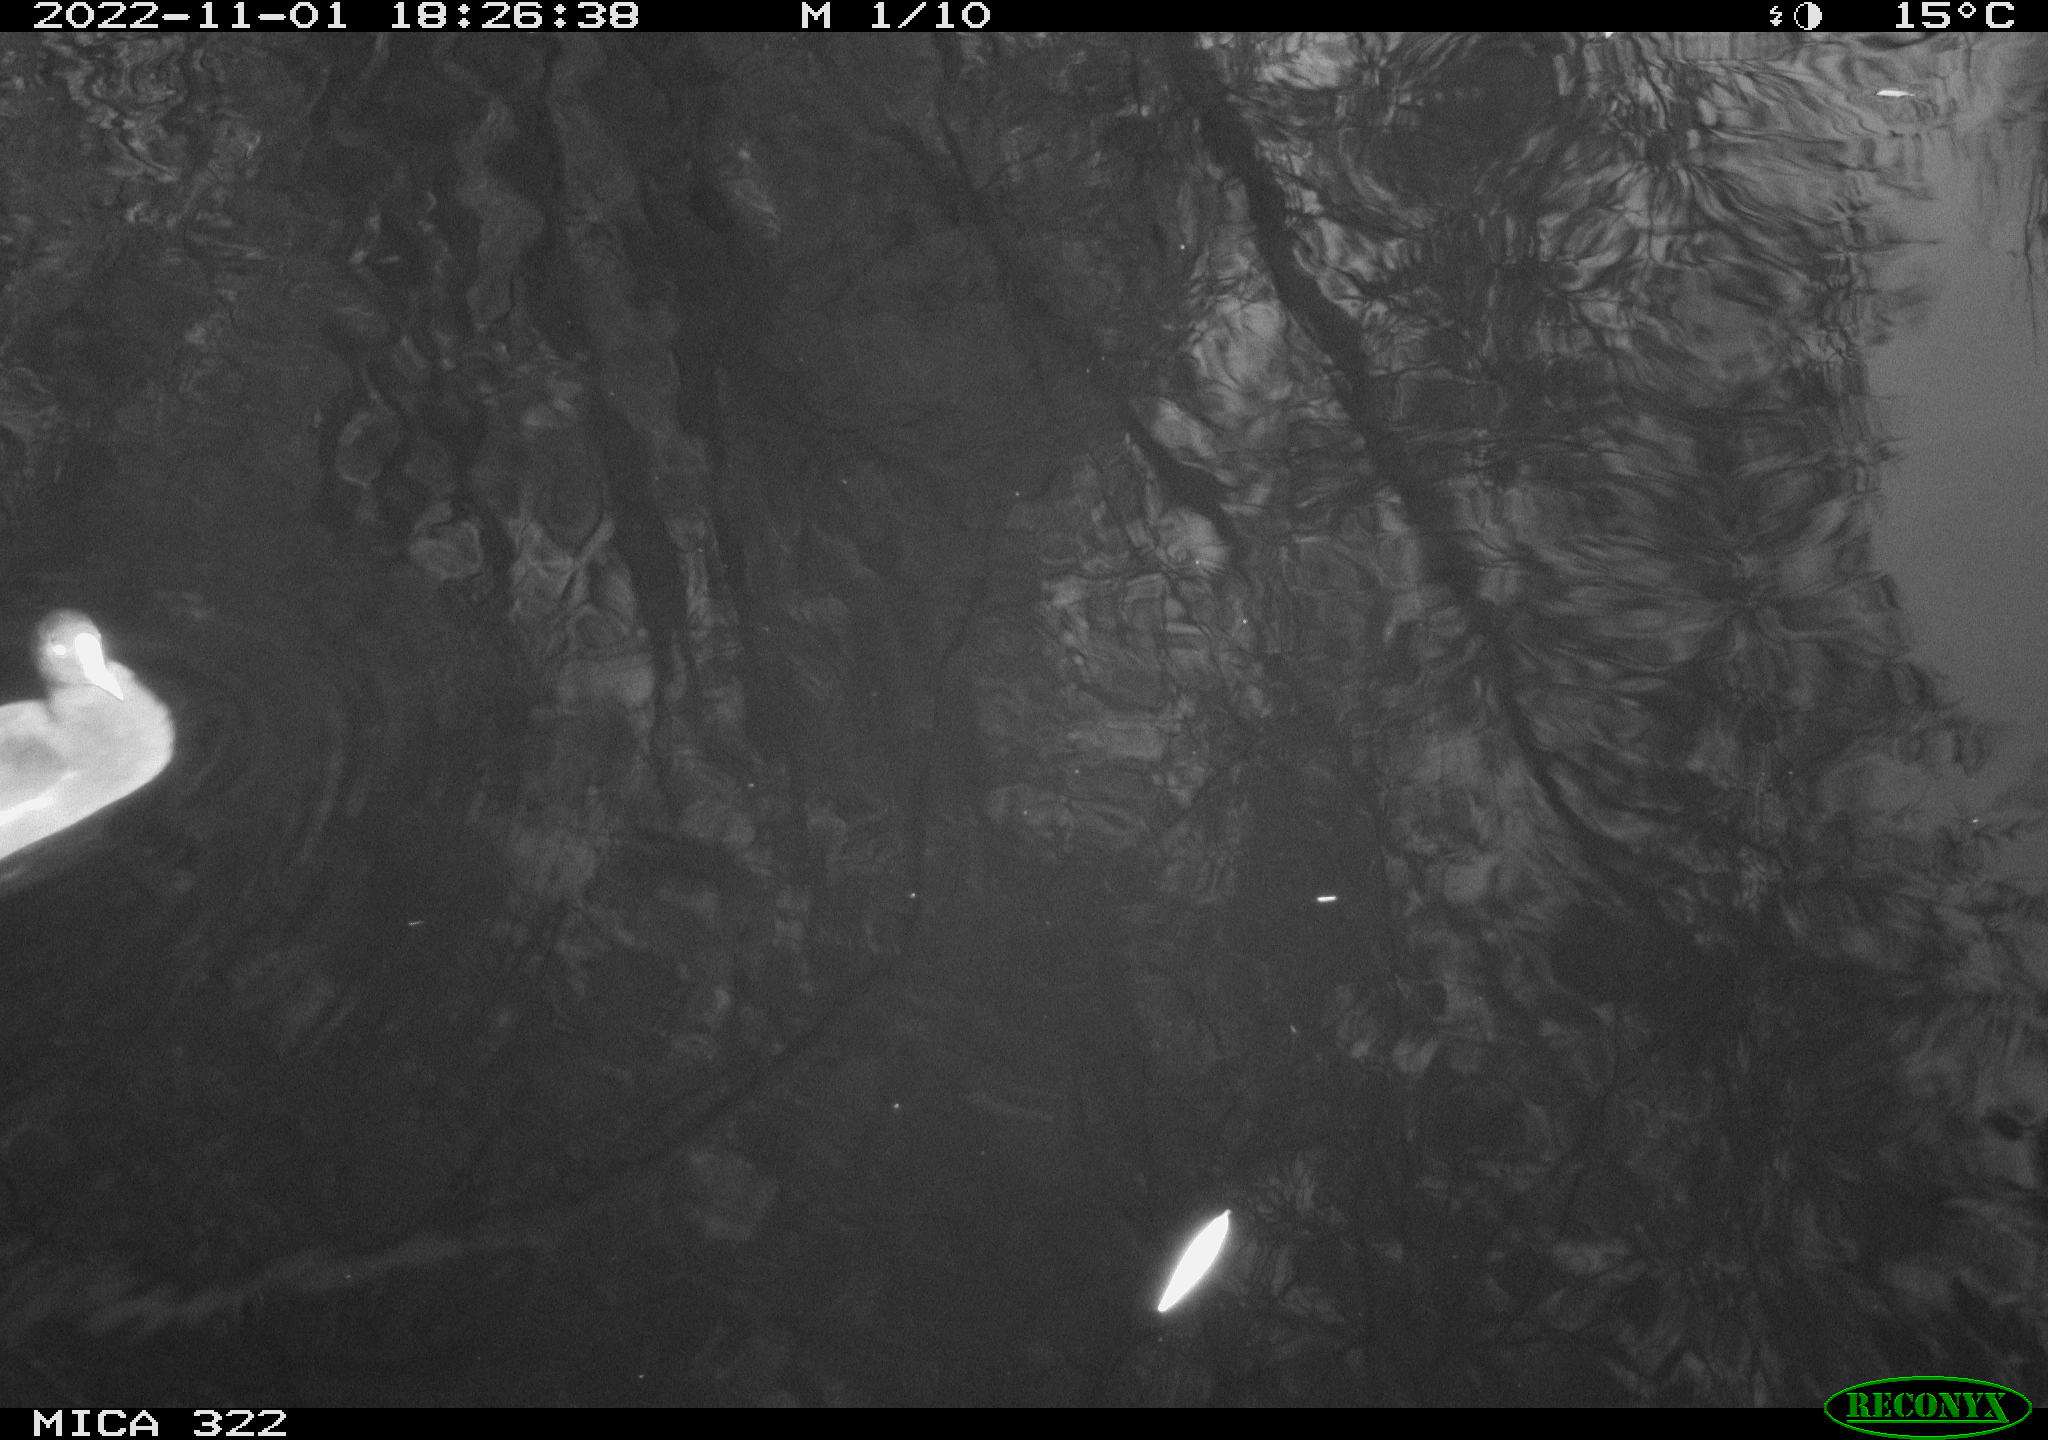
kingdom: Animalia
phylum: Chordata
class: Aves
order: Anseriformes
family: Anatidae
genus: Anas
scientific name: Anas
